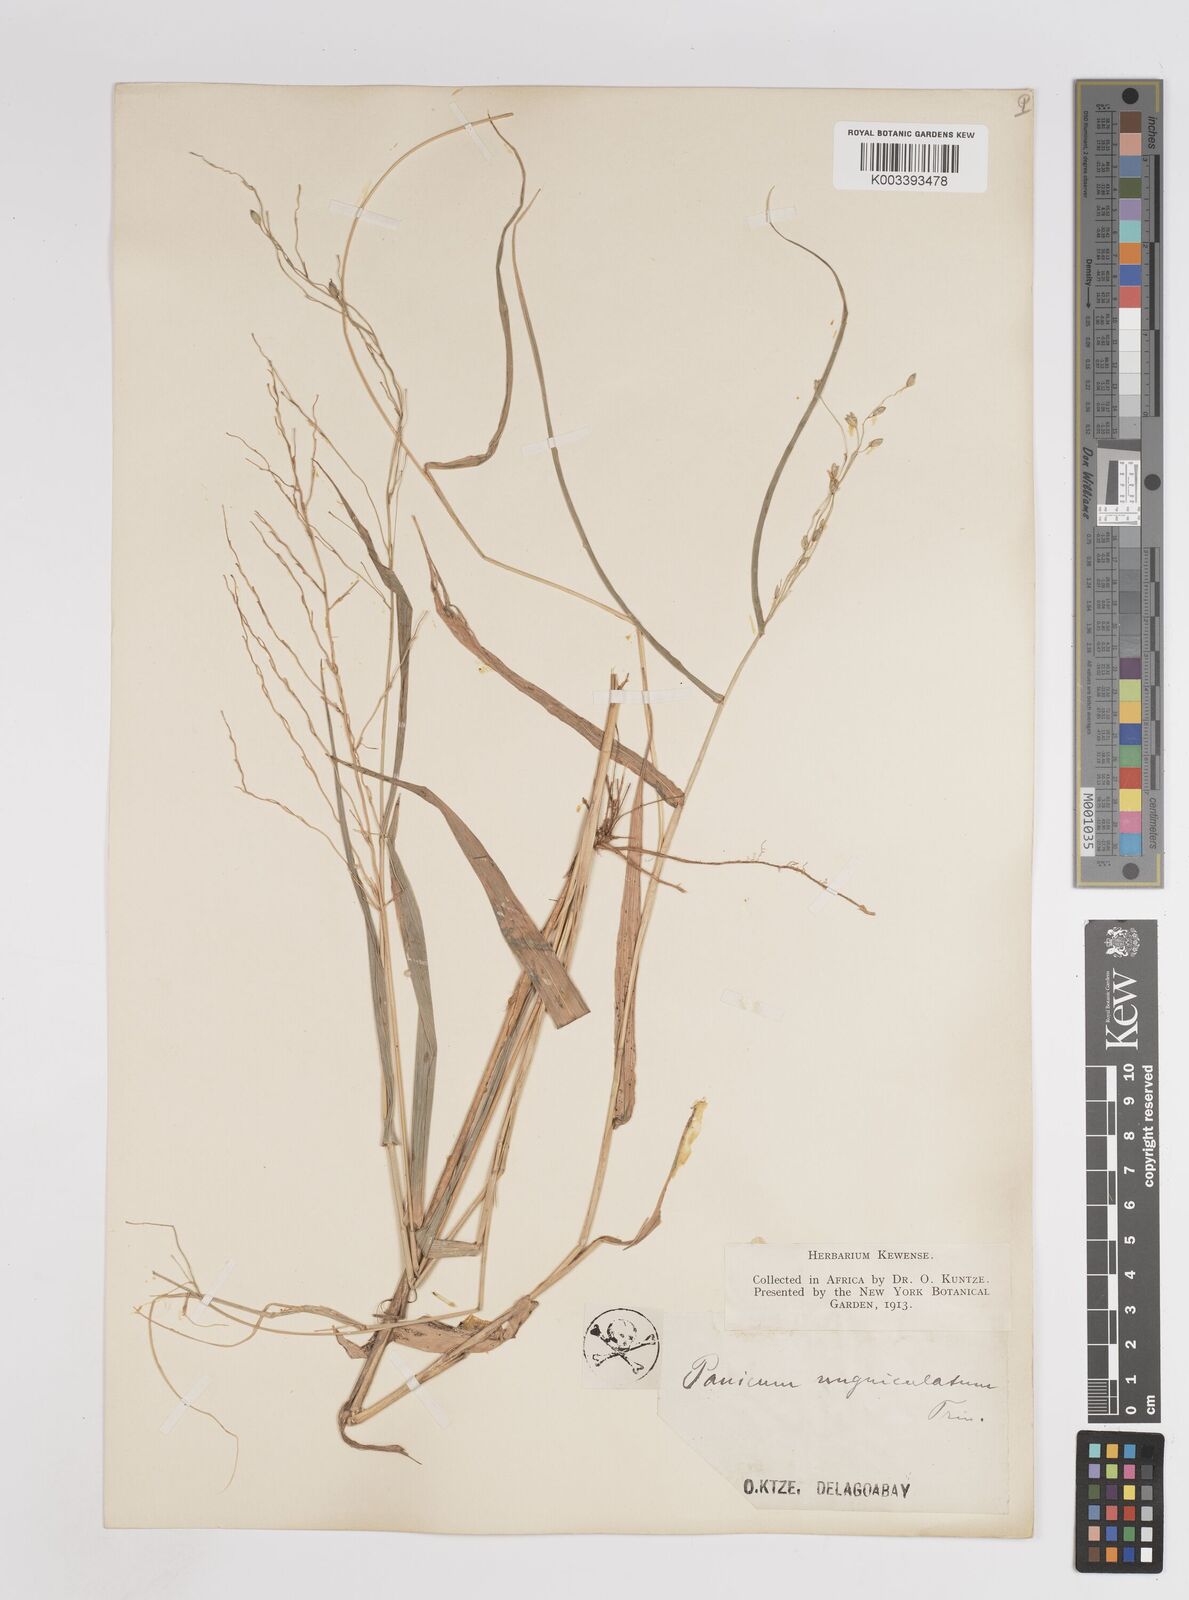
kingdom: Plantae
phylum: Tracheophyta
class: Liliopsida
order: Poales
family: Poaceae
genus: Panicum
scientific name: Panicum deustum
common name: Reed panicum
